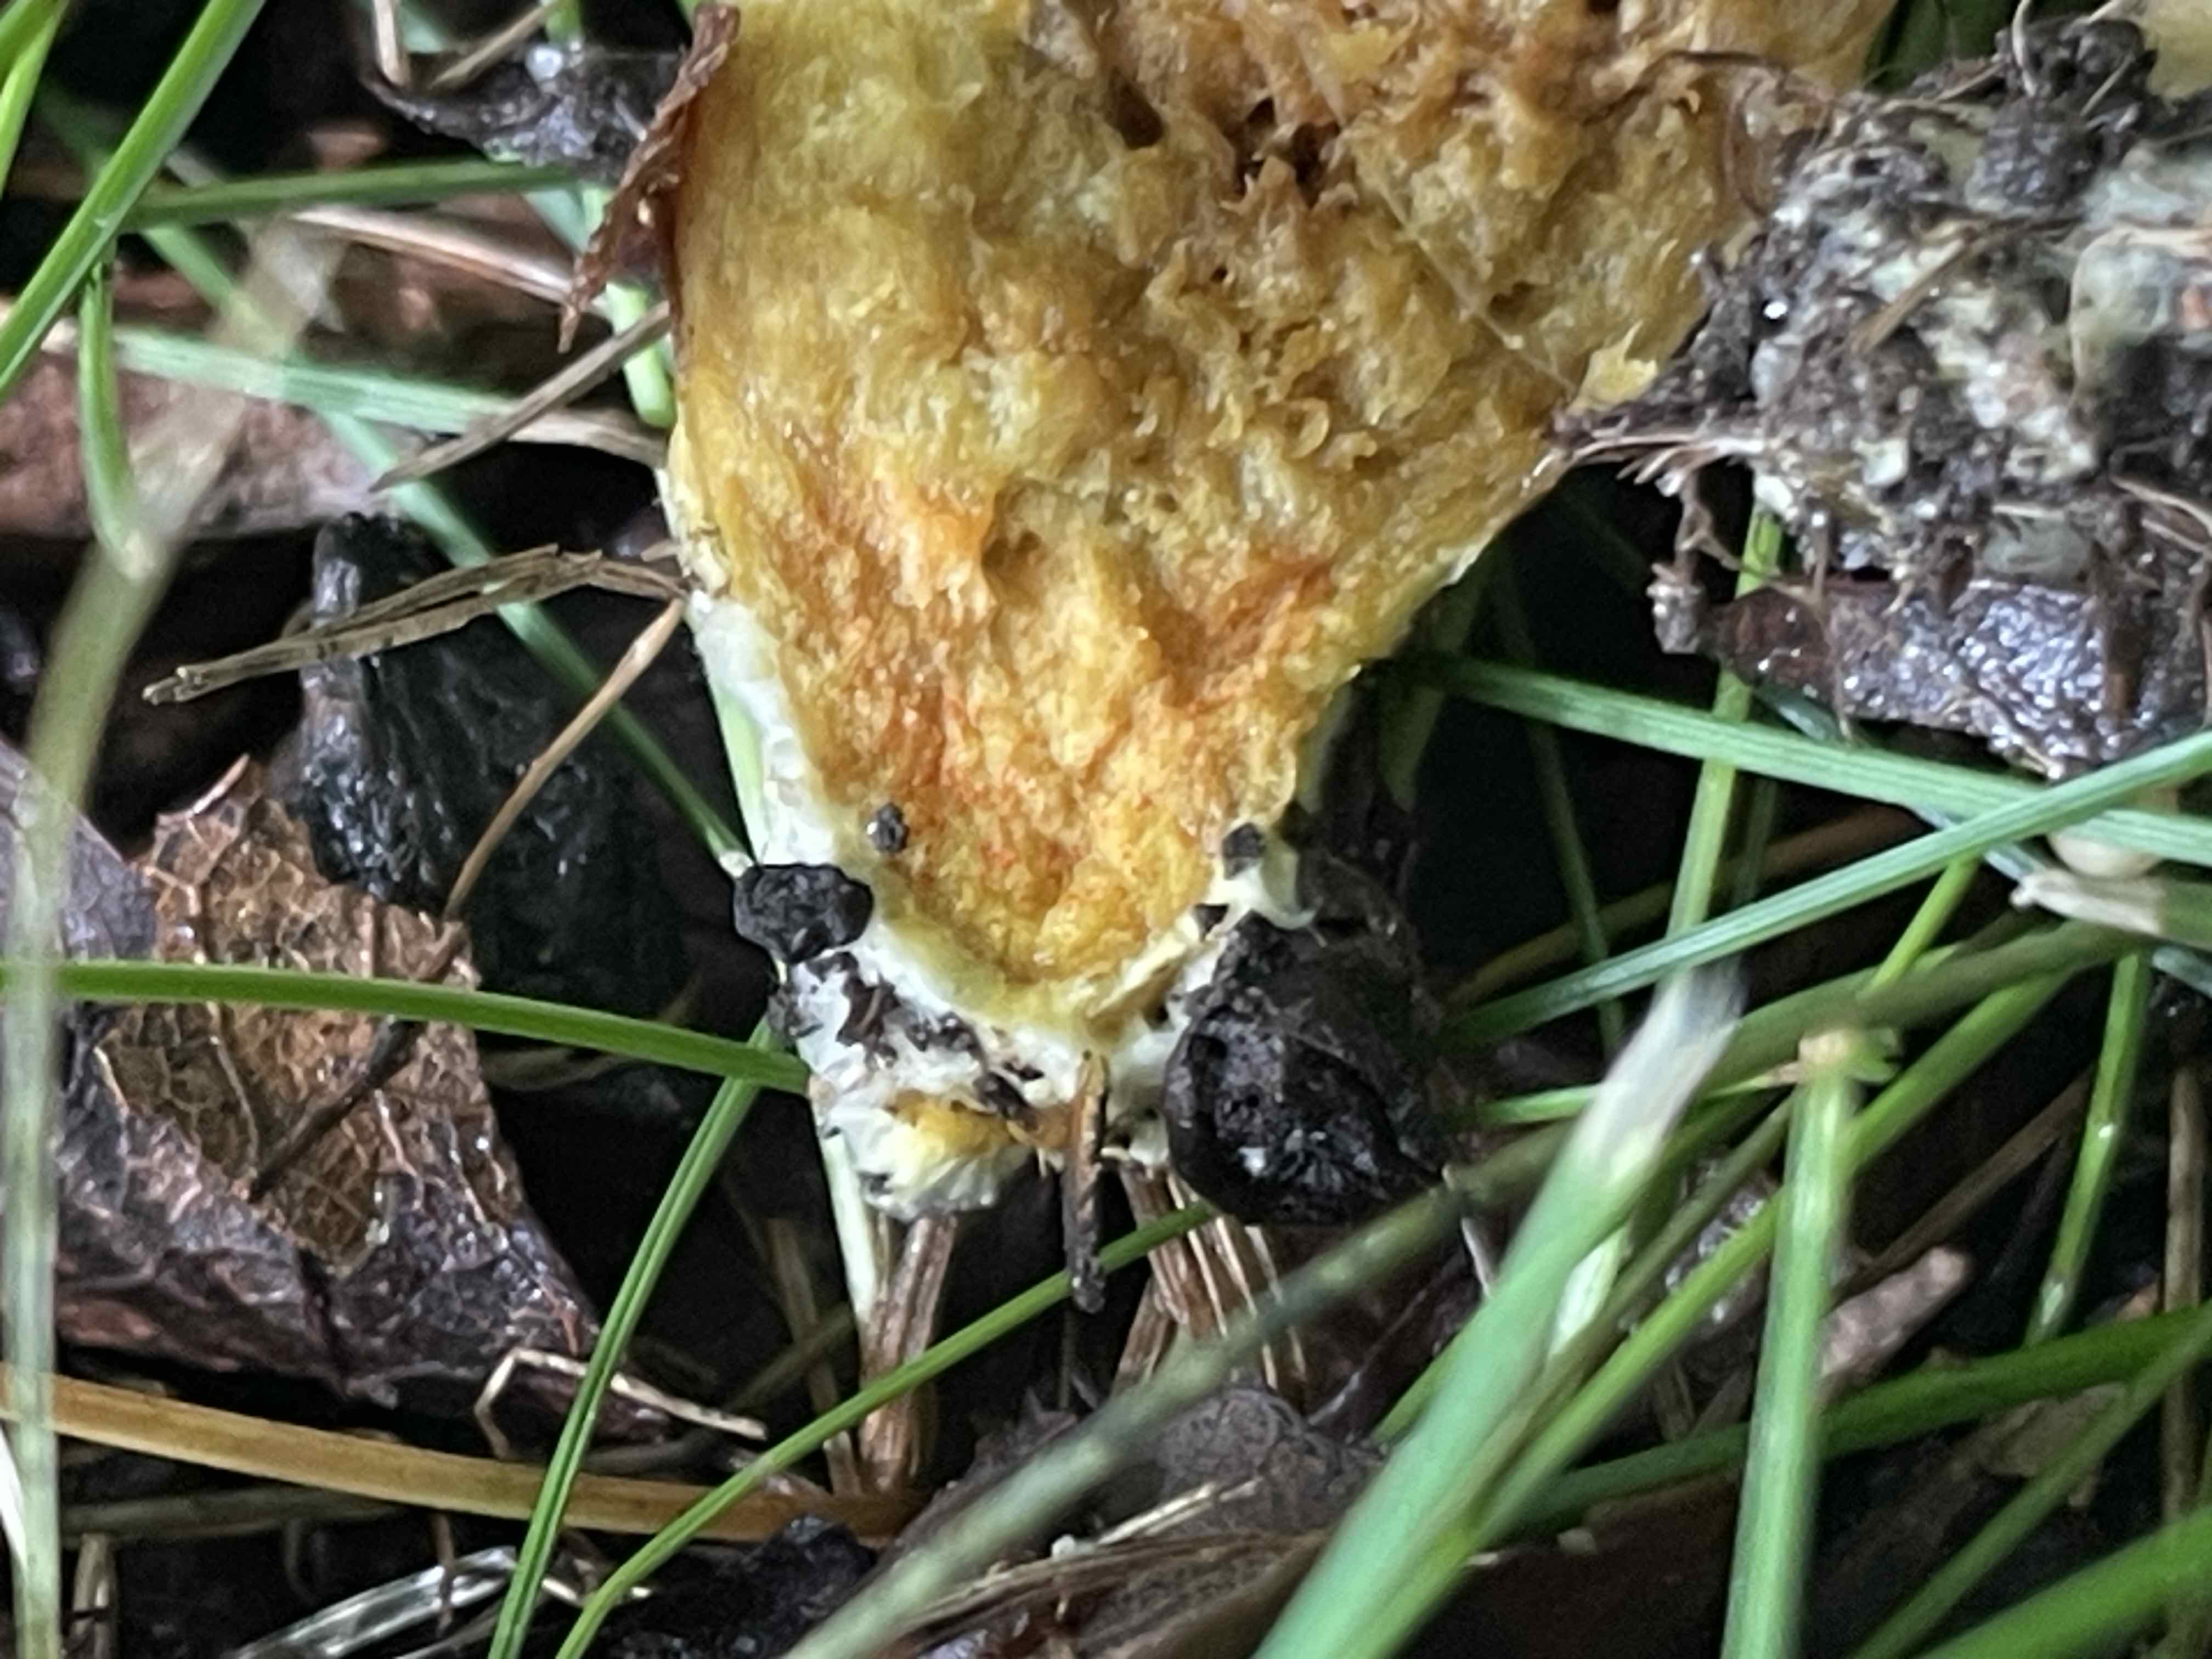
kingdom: Fungi
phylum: Basidiomycota
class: Agaricomycetes
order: Boletales
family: Boletaceae
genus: Hortiboletus
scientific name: Hortiboletus engelii
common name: fersken-rørhat
